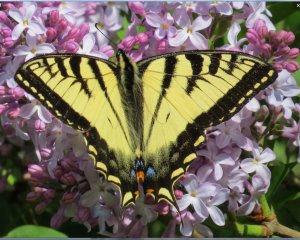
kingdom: Animalia
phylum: Arthropoda
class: Insecta
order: Lepidoptera
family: Papilionidae
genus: Pterourus
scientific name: Pterourus canadensis
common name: Canadian Tiger Swallowtail
